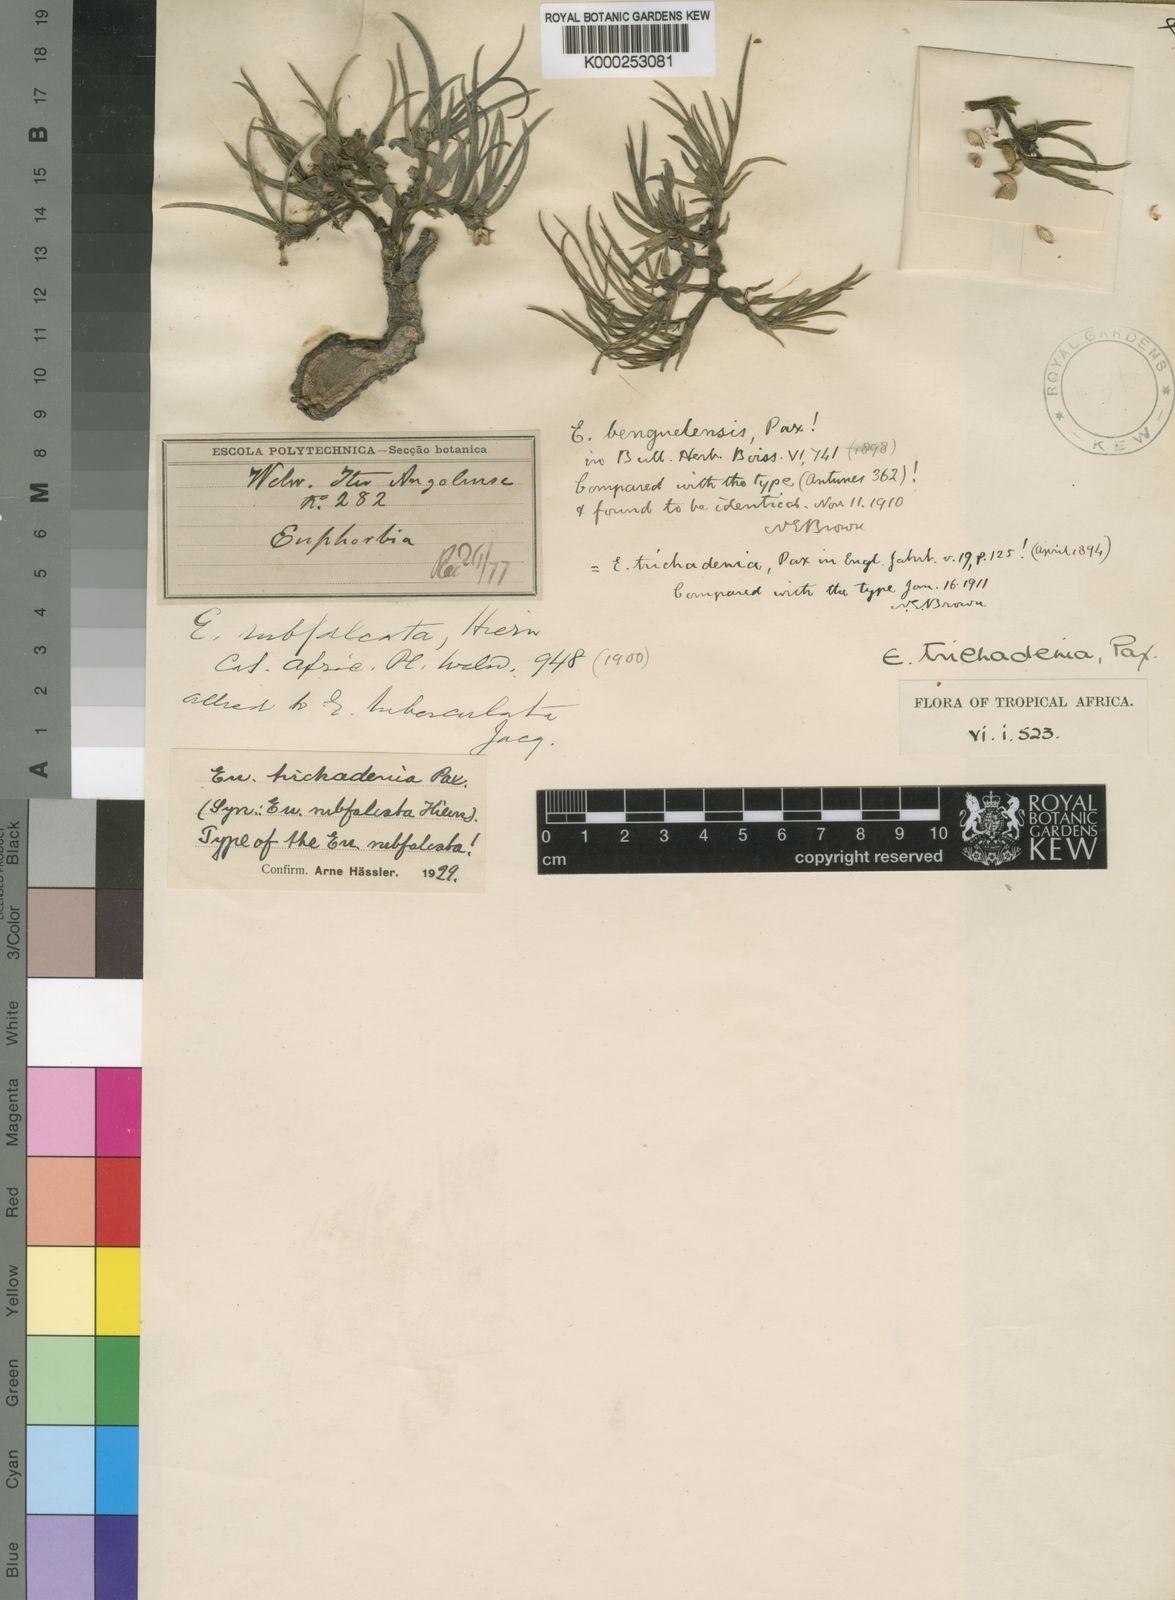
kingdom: Plantae
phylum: Tracheophyta
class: Magnoliopsida
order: Malpighiales
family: Euphorbiaceae
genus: Euphorbia
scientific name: Euphorbia trichadenia
